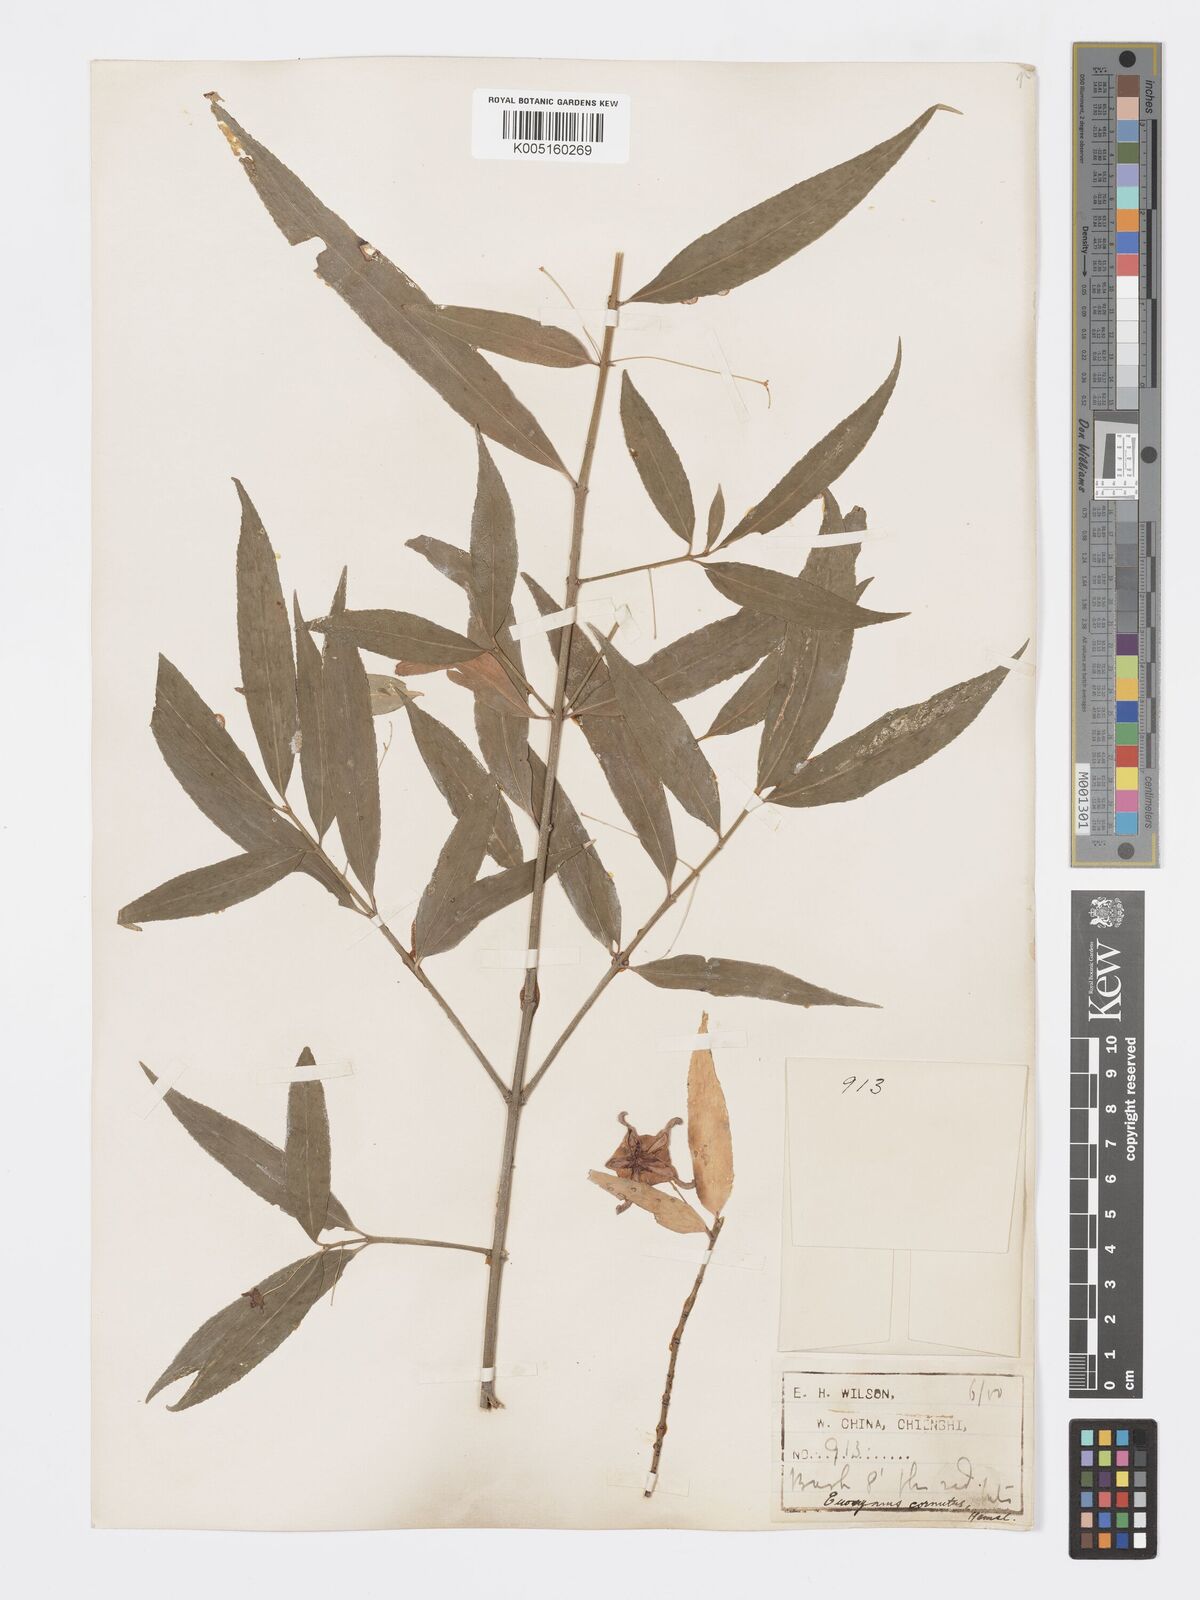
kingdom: Plantae
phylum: Tracheophyta
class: Magnoliopsida
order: Celastrales
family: Celastraceae
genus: Euonymus
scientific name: Euonymus cornutus
